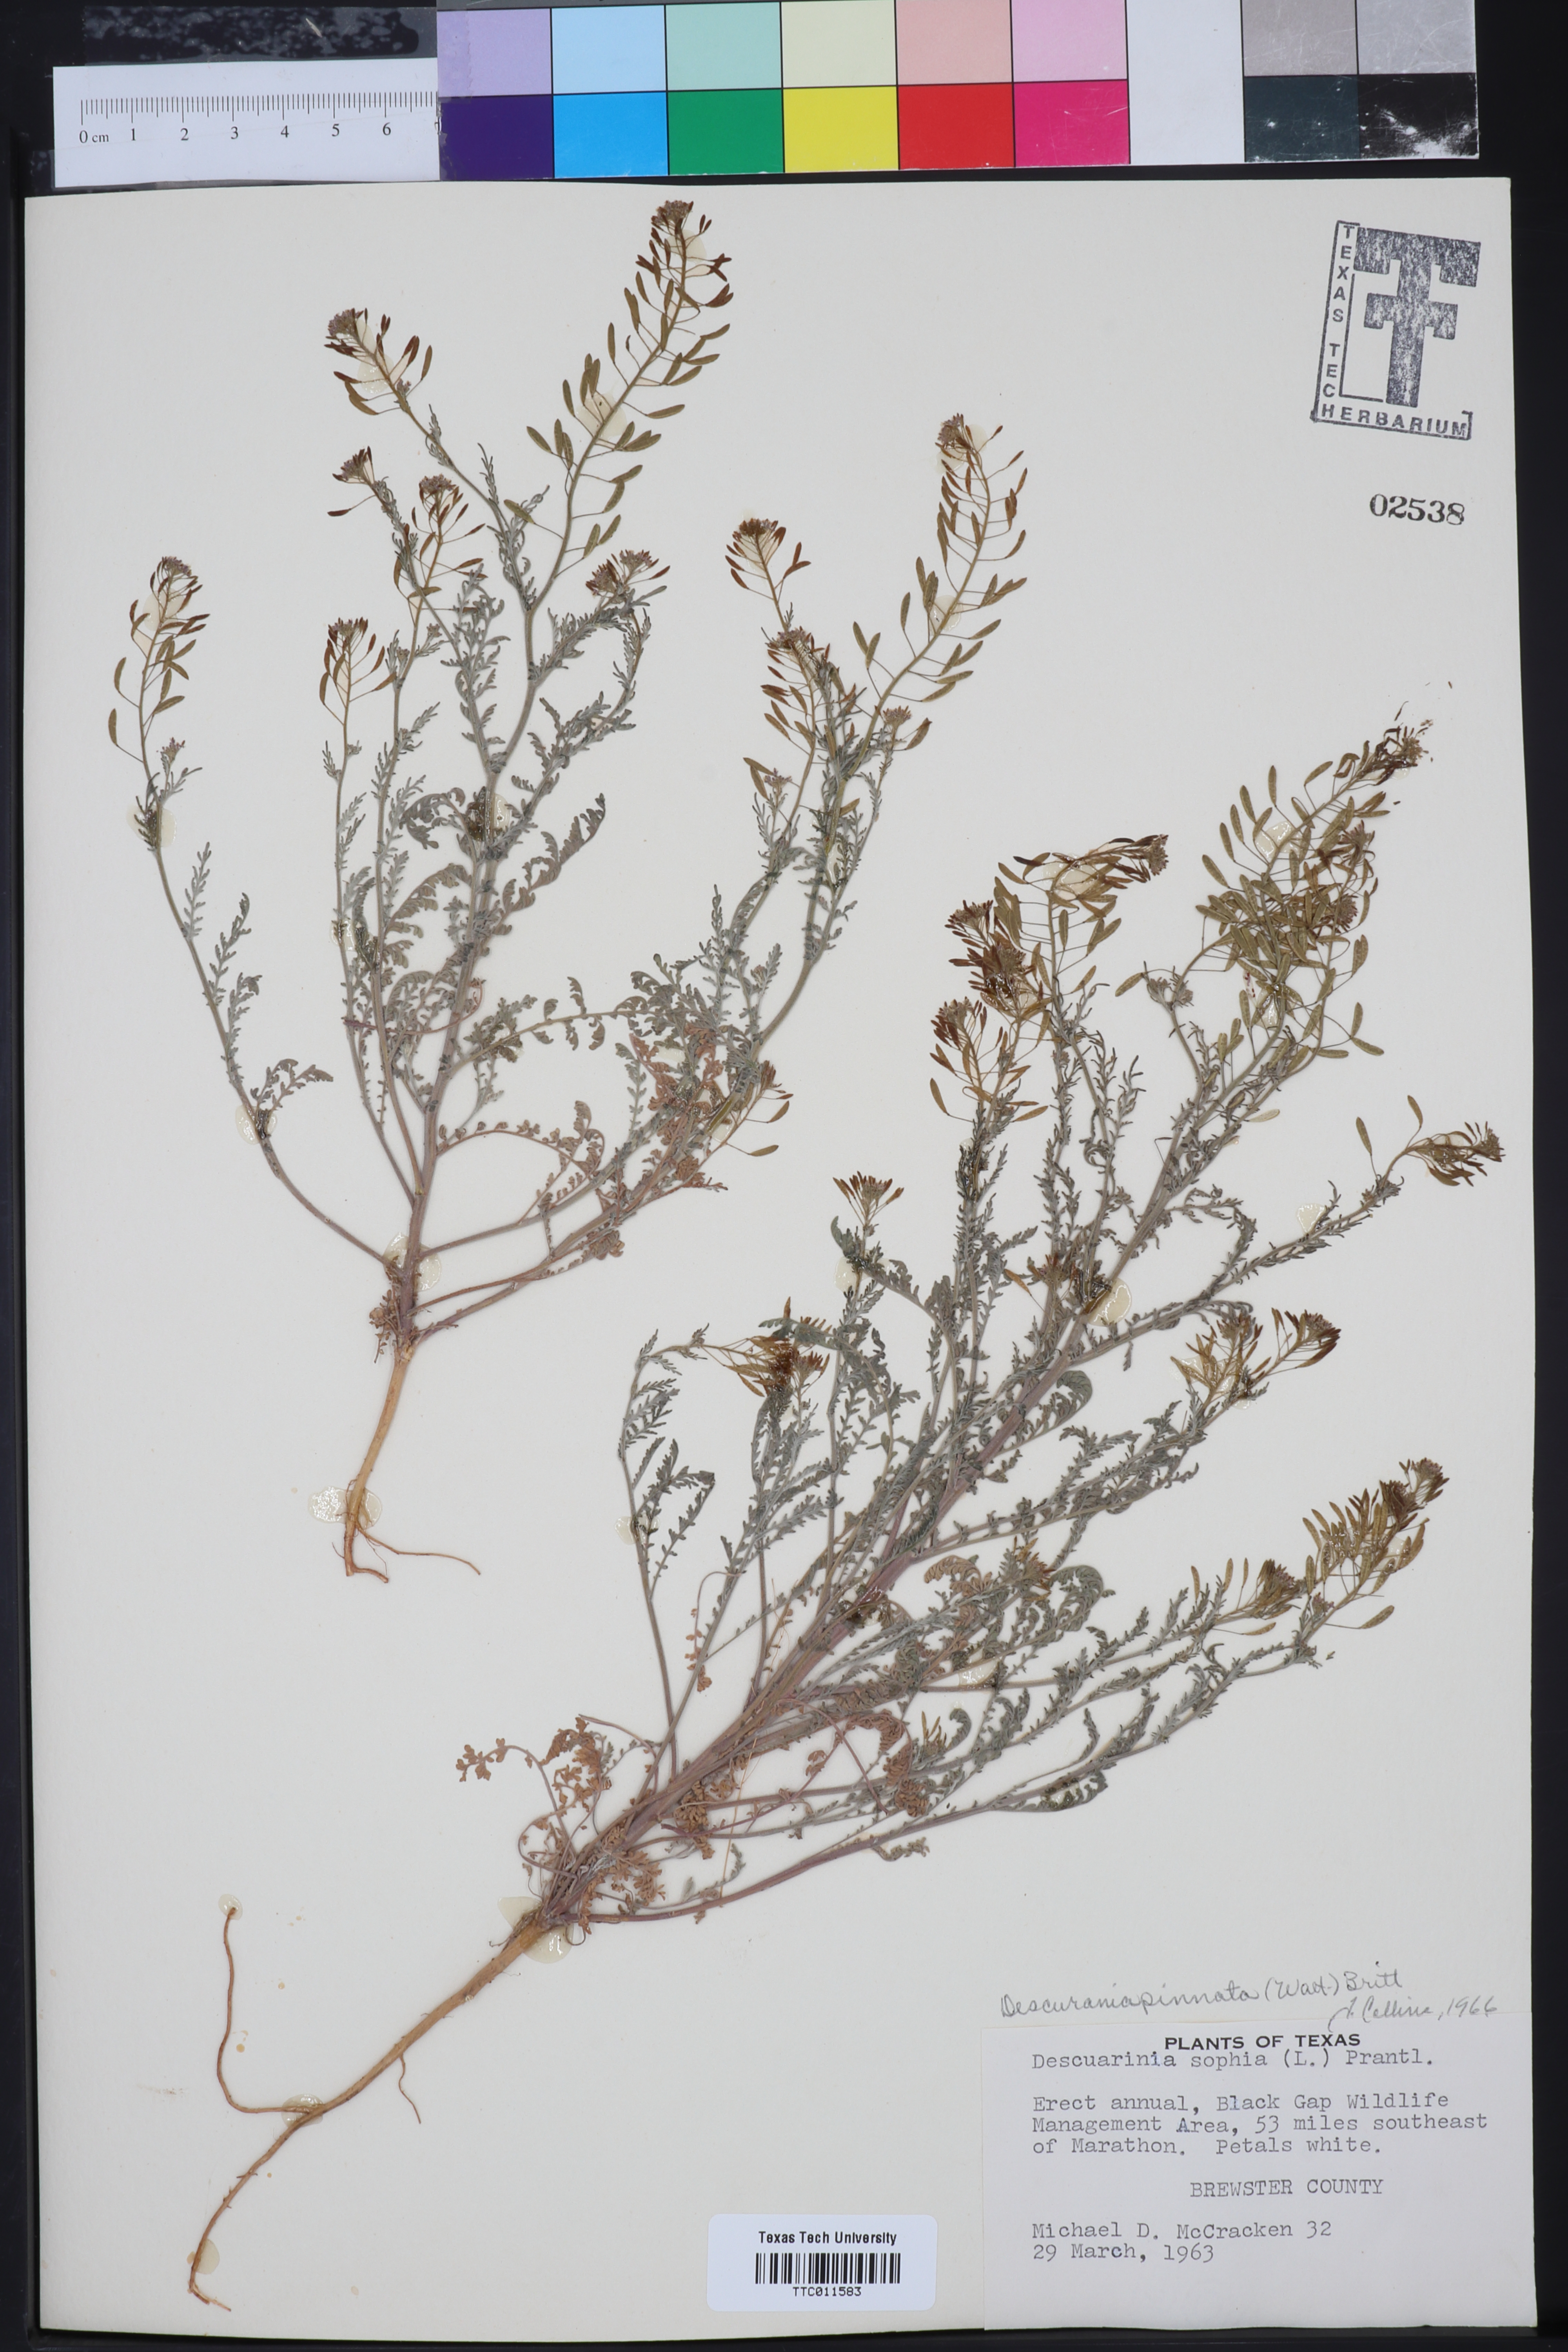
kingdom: Plantae
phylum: Tracheophyta
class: Magnoliopsida
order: Brassicales
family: Brassicaceae
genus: Descurainia
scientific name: Descurainia pinnata
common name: Western tansy mustard
